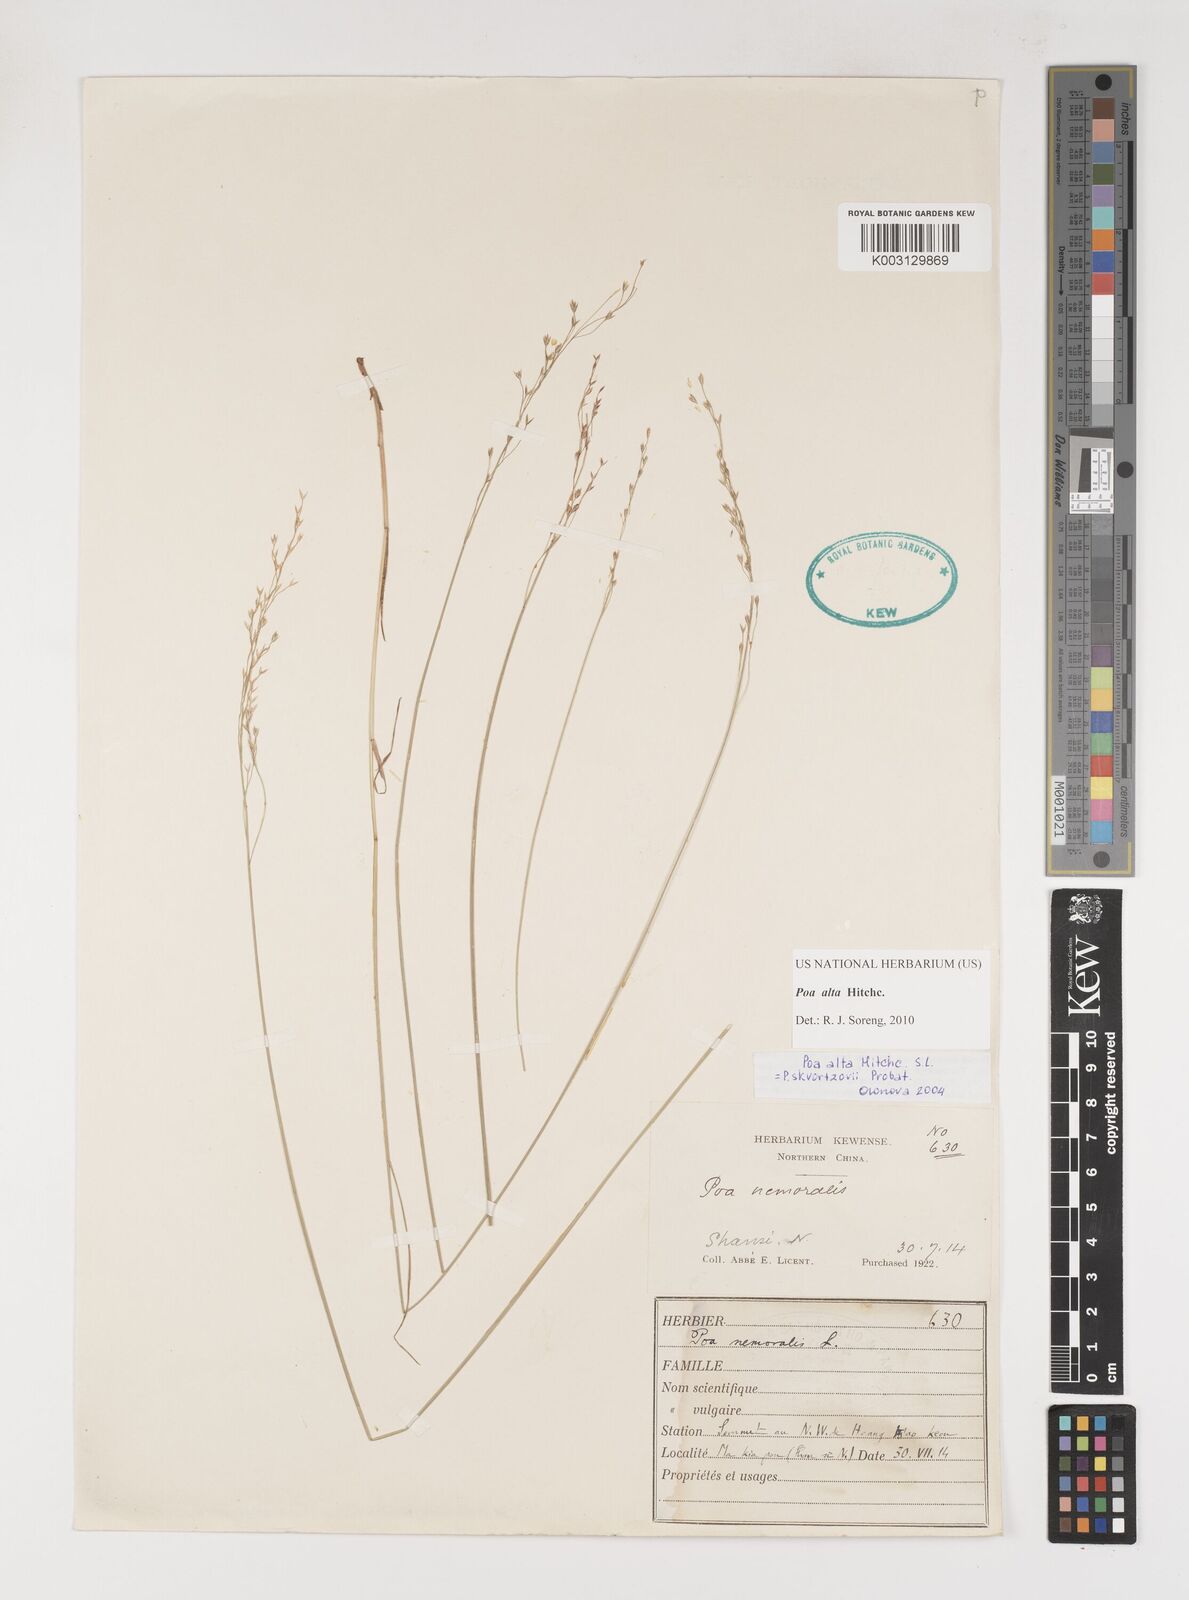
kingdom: Plantae
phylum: Tracheophyta
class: Liliopsida
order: Poales
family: Poaceae
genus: Poa
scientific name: Poa alta
